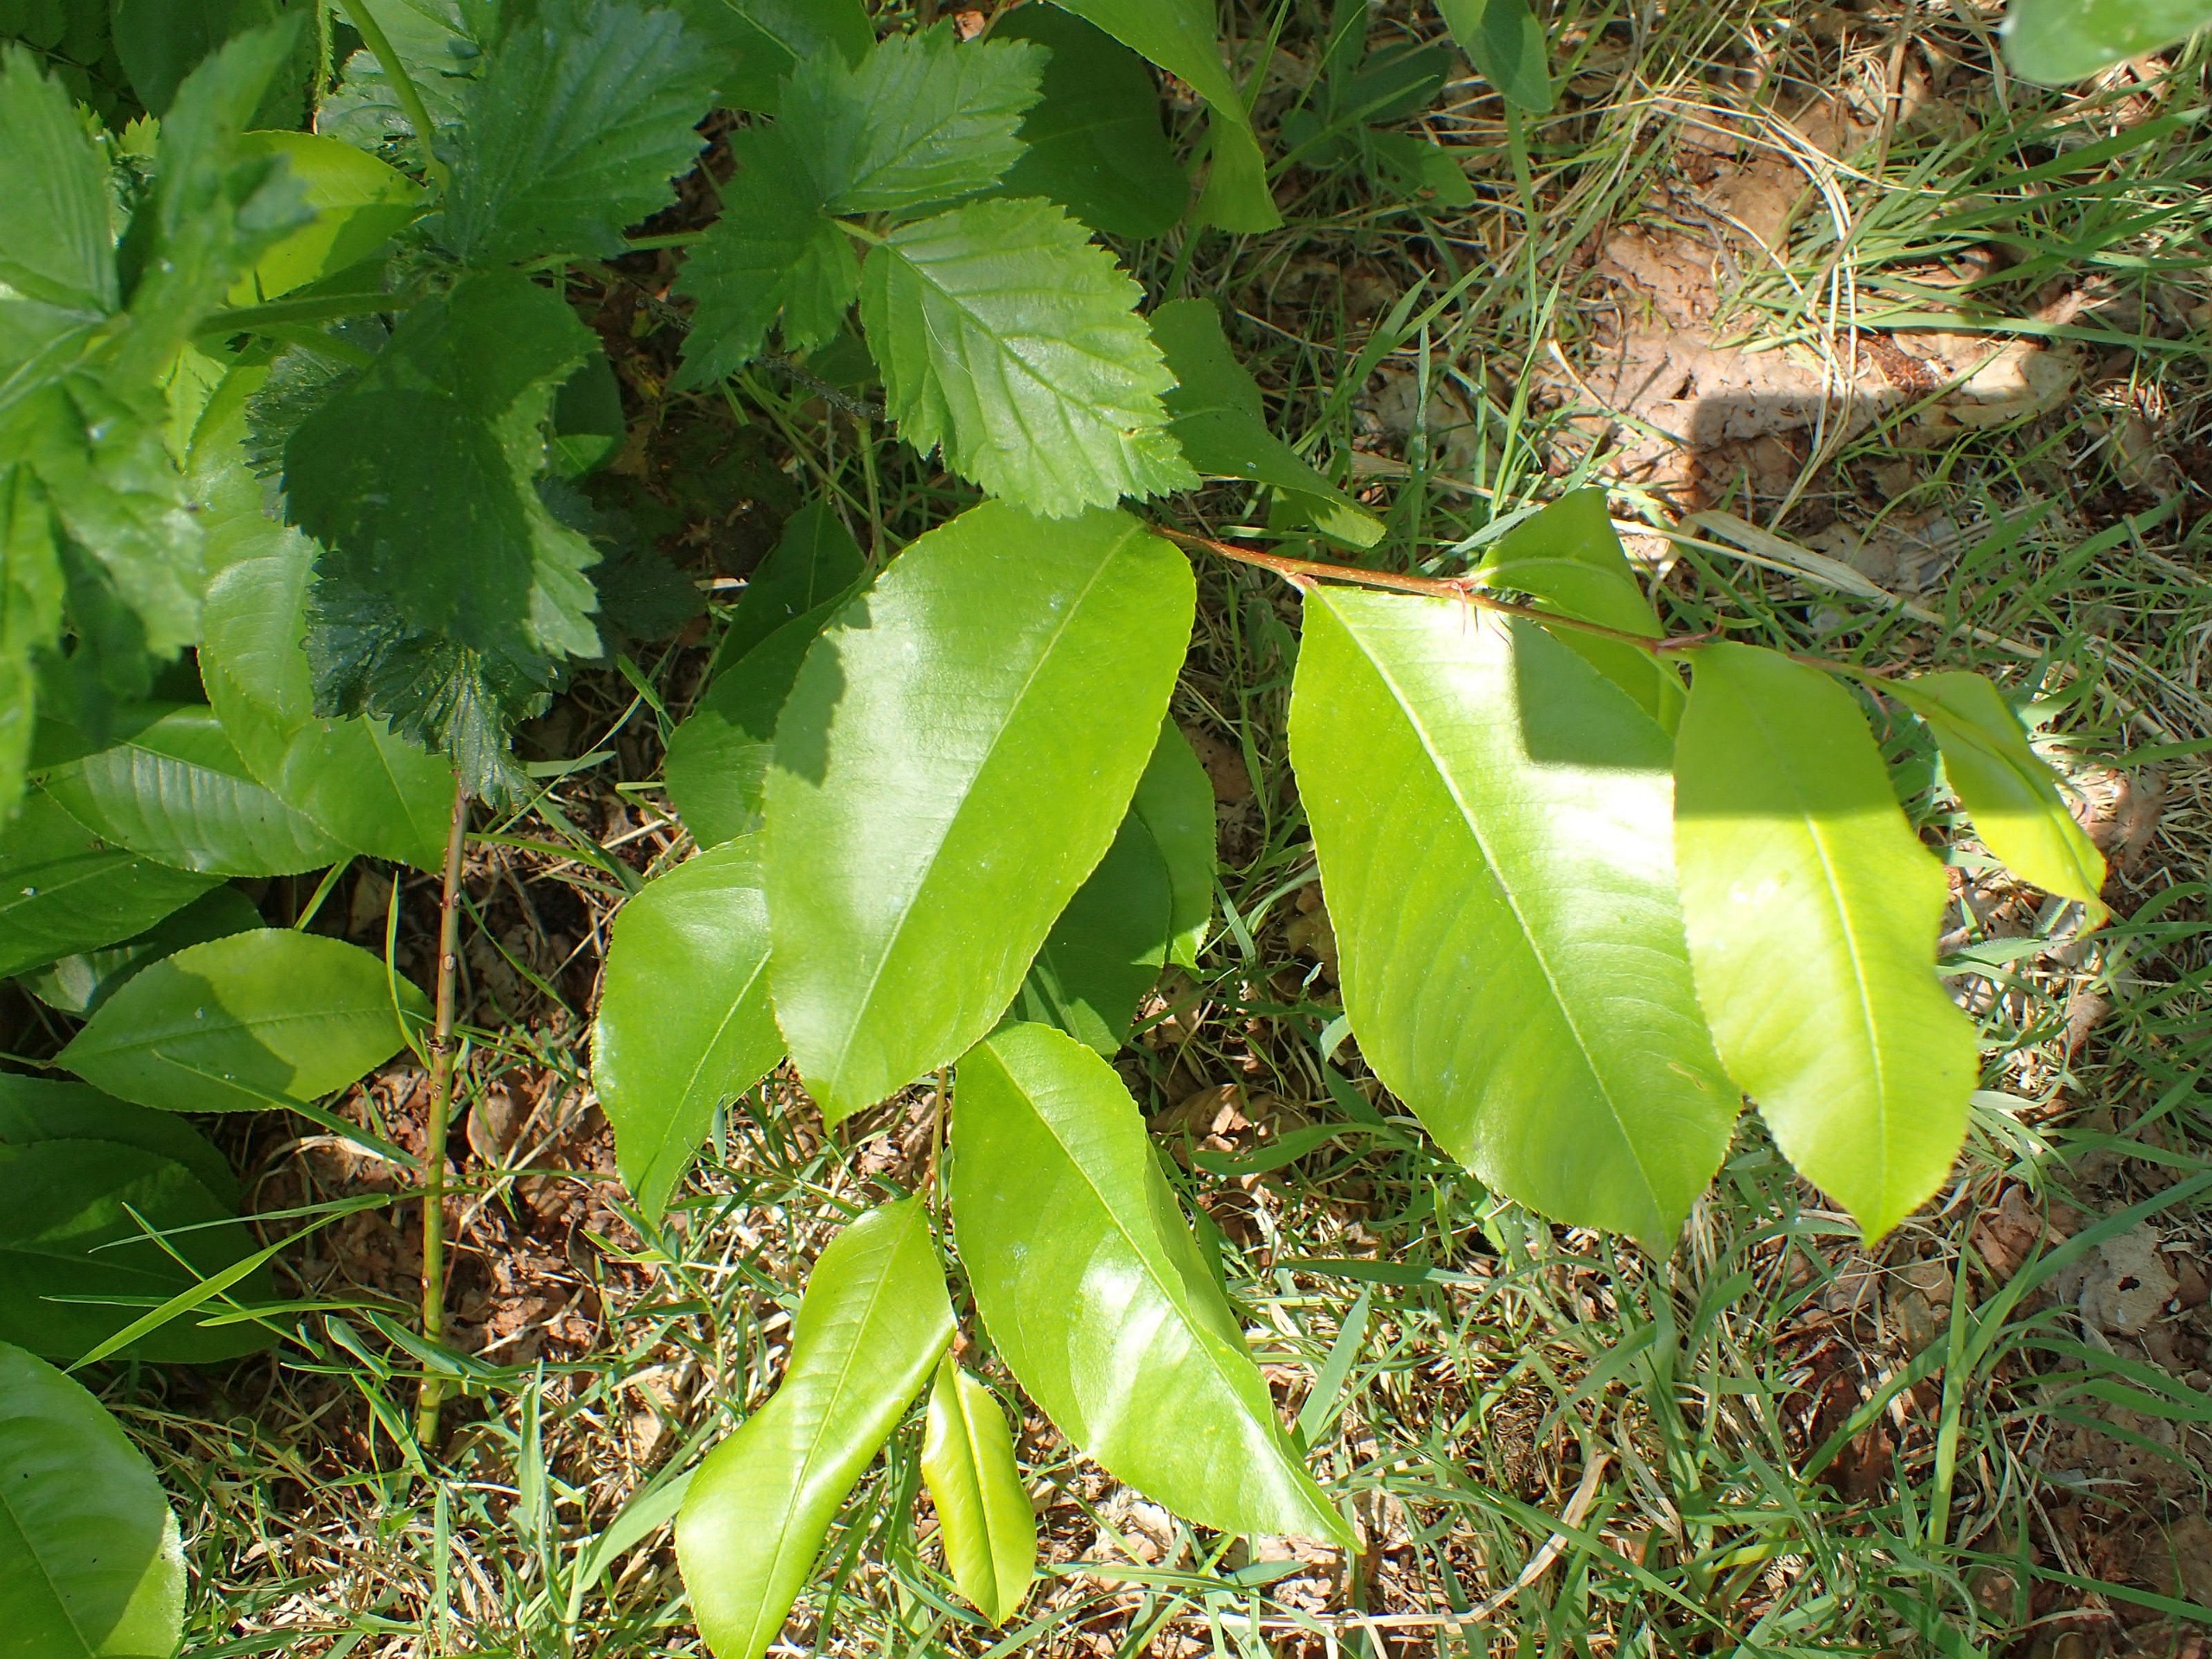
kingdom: Plantae
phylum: Tracheophyta
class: Magnoliopsida
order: Rosales
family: Rosaceae
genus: Prunus
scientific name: Prunus serotina
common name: Glansbladet hæg
